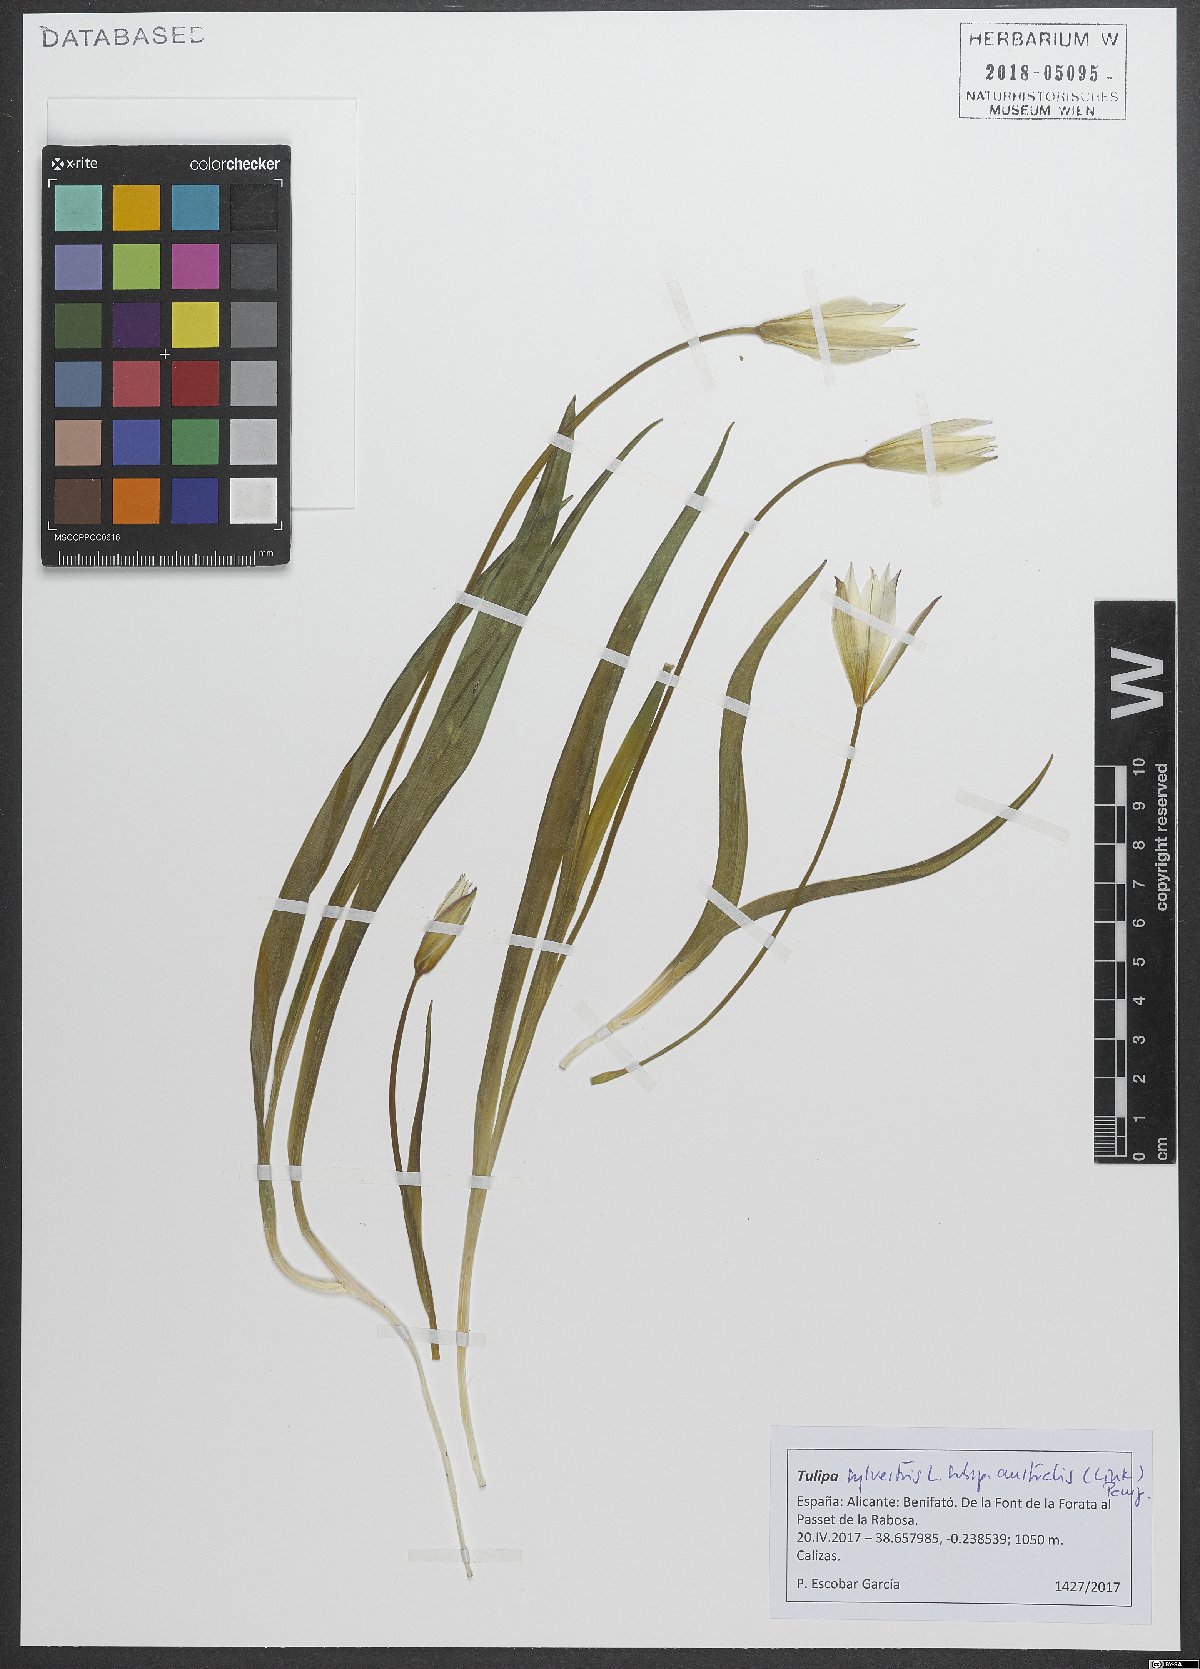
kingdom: Plantae
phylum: Tracheophyta
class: Liliopsida
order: Liliales
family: Liliaceae
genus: Tulipa
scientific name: Tulipa sylvestris
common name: Wild tulip
